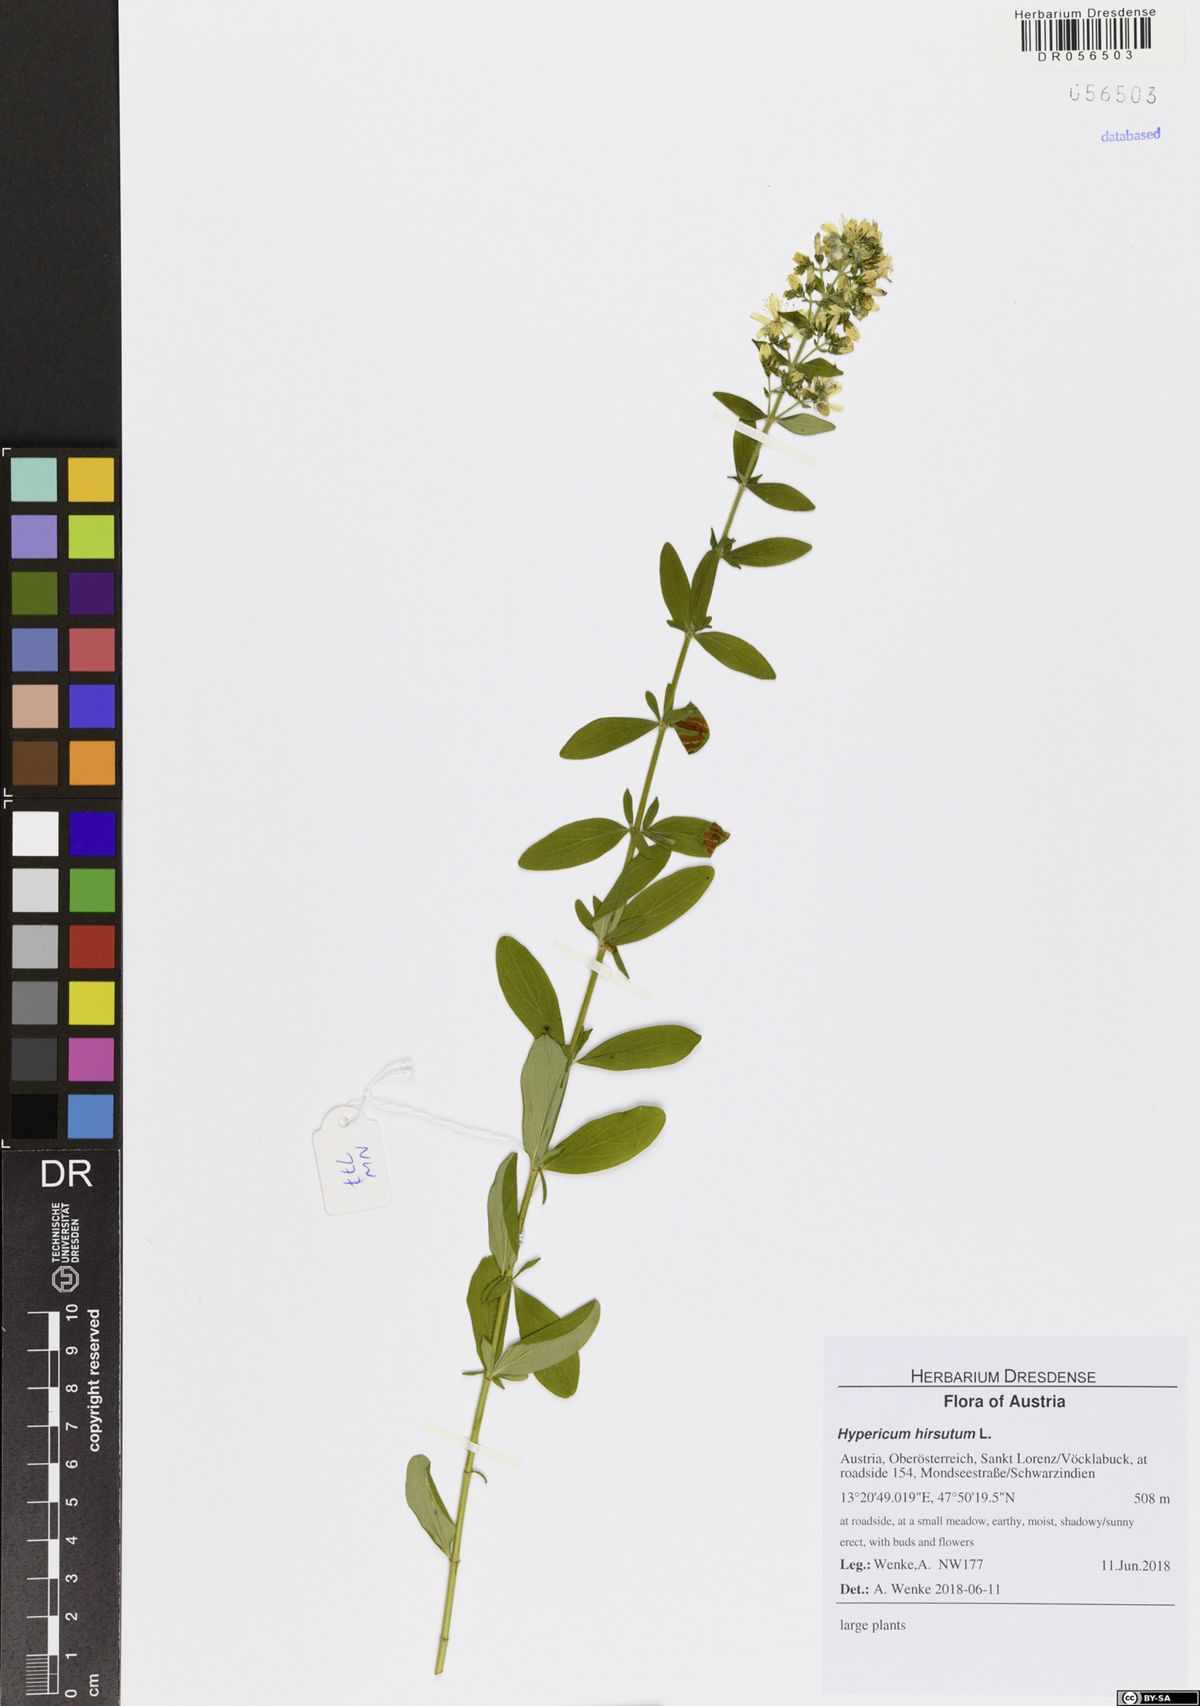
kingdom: Plantae
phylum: Tracheophyta
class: Magnoliopsida
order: Malpighiales
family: Hypericaceae
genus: Hypericum
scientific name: Hypericum hirsutum
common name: Hairy st. john's-wort
